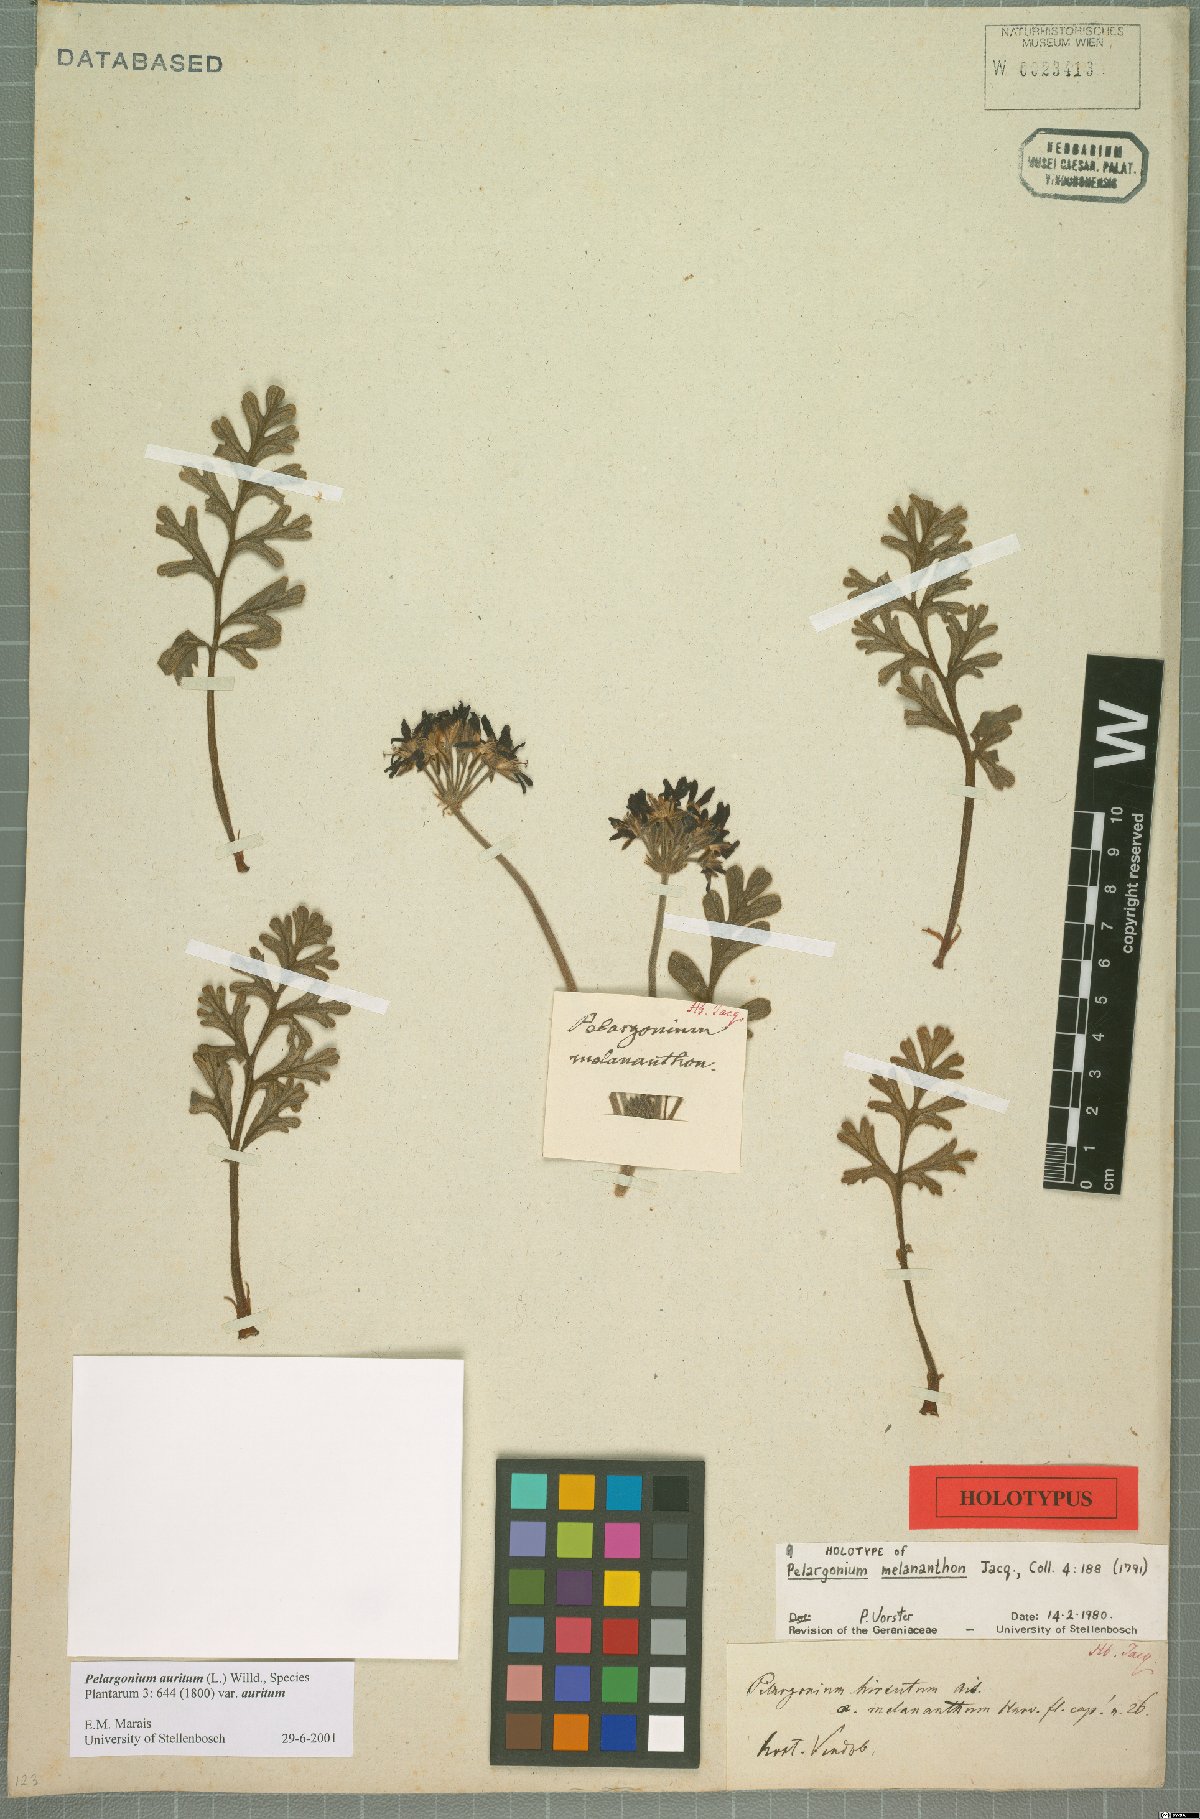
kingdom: Plantae
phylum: Tracheophyta
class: Magnoliopsida
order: Geraniales
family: Geraniaceae
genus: Pelargonium
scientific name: Pelargonium auritum
